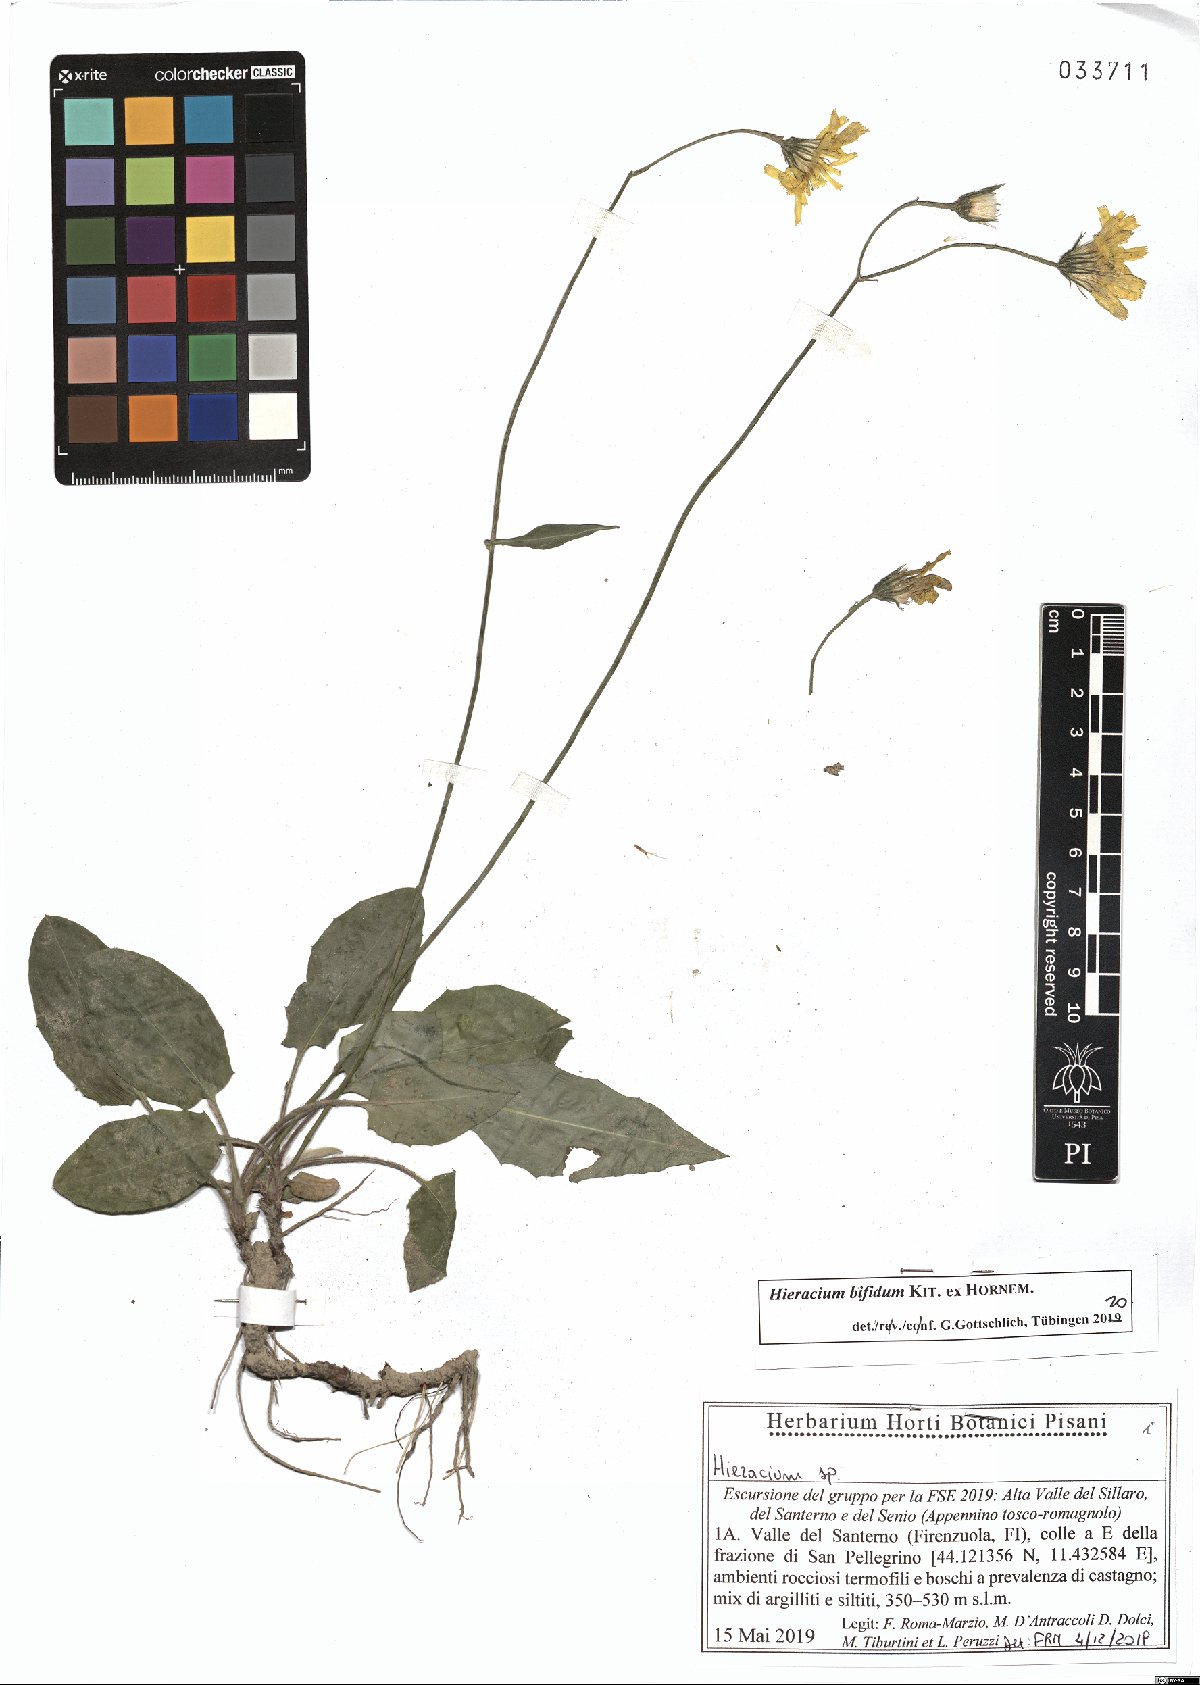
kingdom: Plantae
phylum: Tracheophyta
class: Magnoliopsida
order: Asterales
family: Asteraceae
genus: Hieracium
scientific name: Hieracium bifidum
